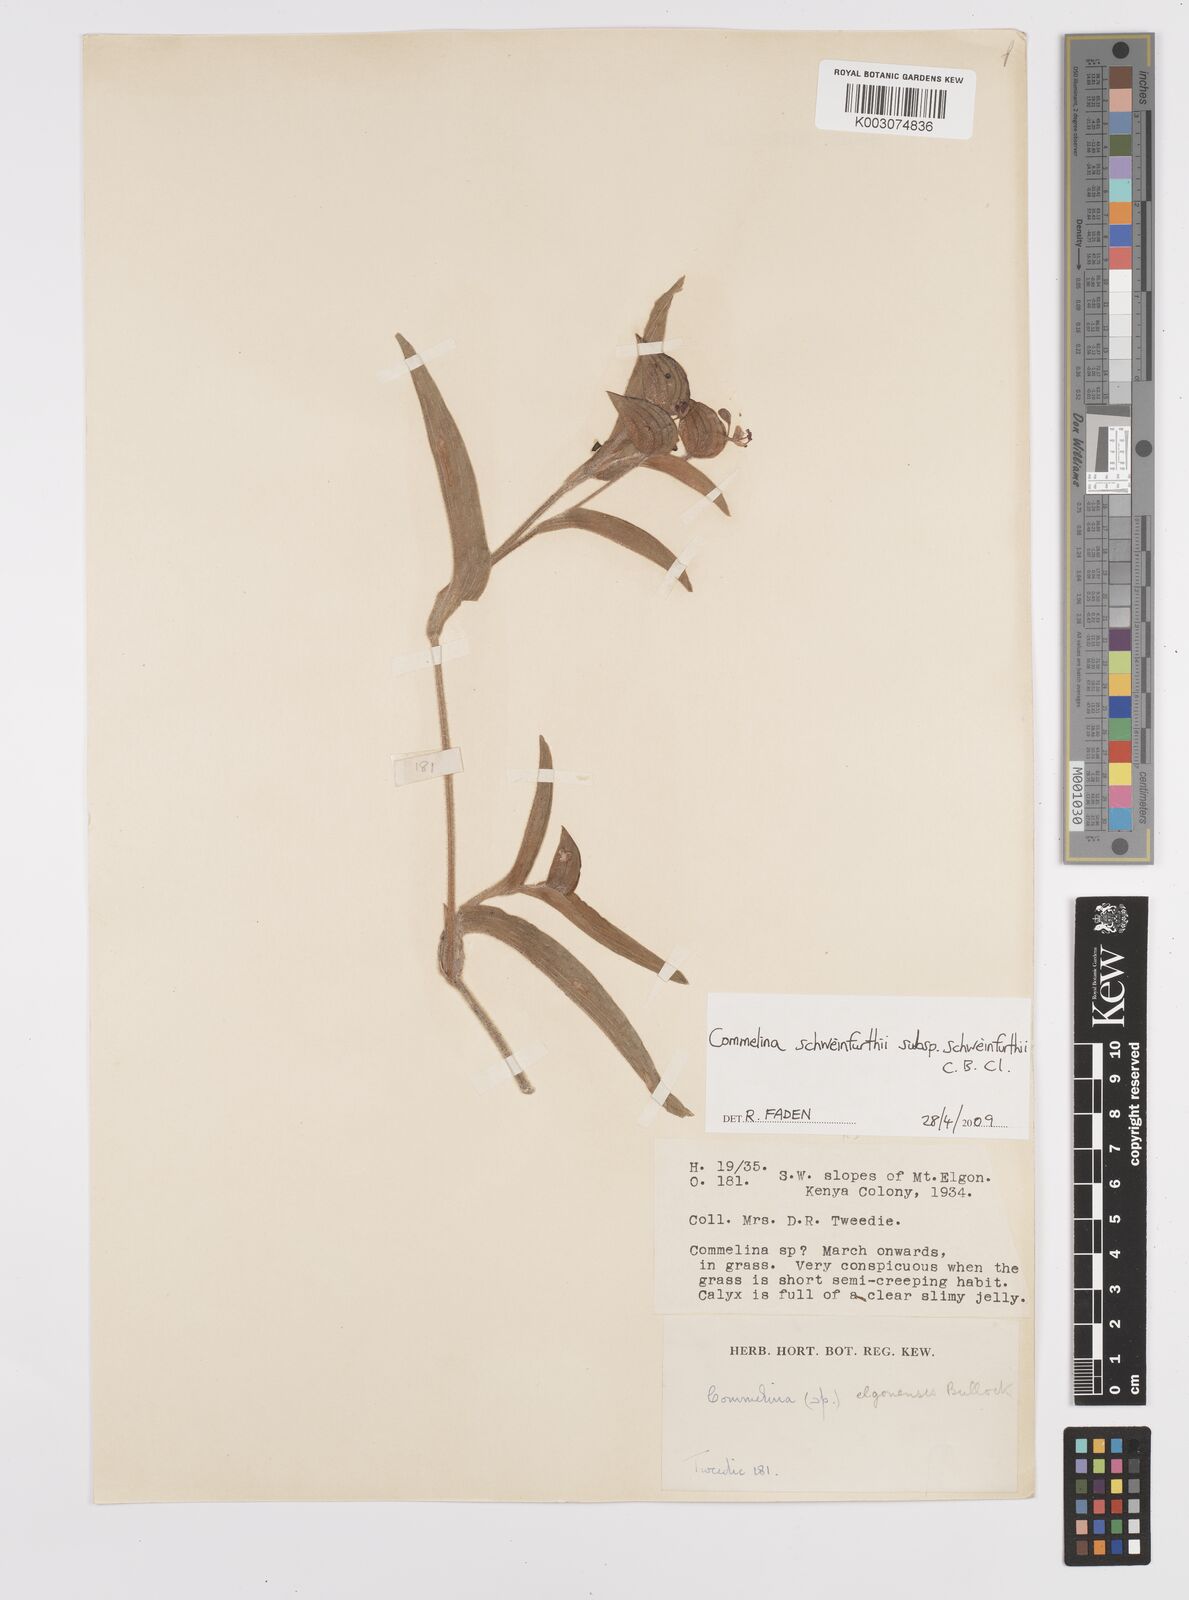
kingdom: Plantae
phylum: Tracheophyta
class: Liliopsida
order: Commelinales
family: Commelinaceae
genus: Commelina
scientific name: Commelina schweinfurthii
